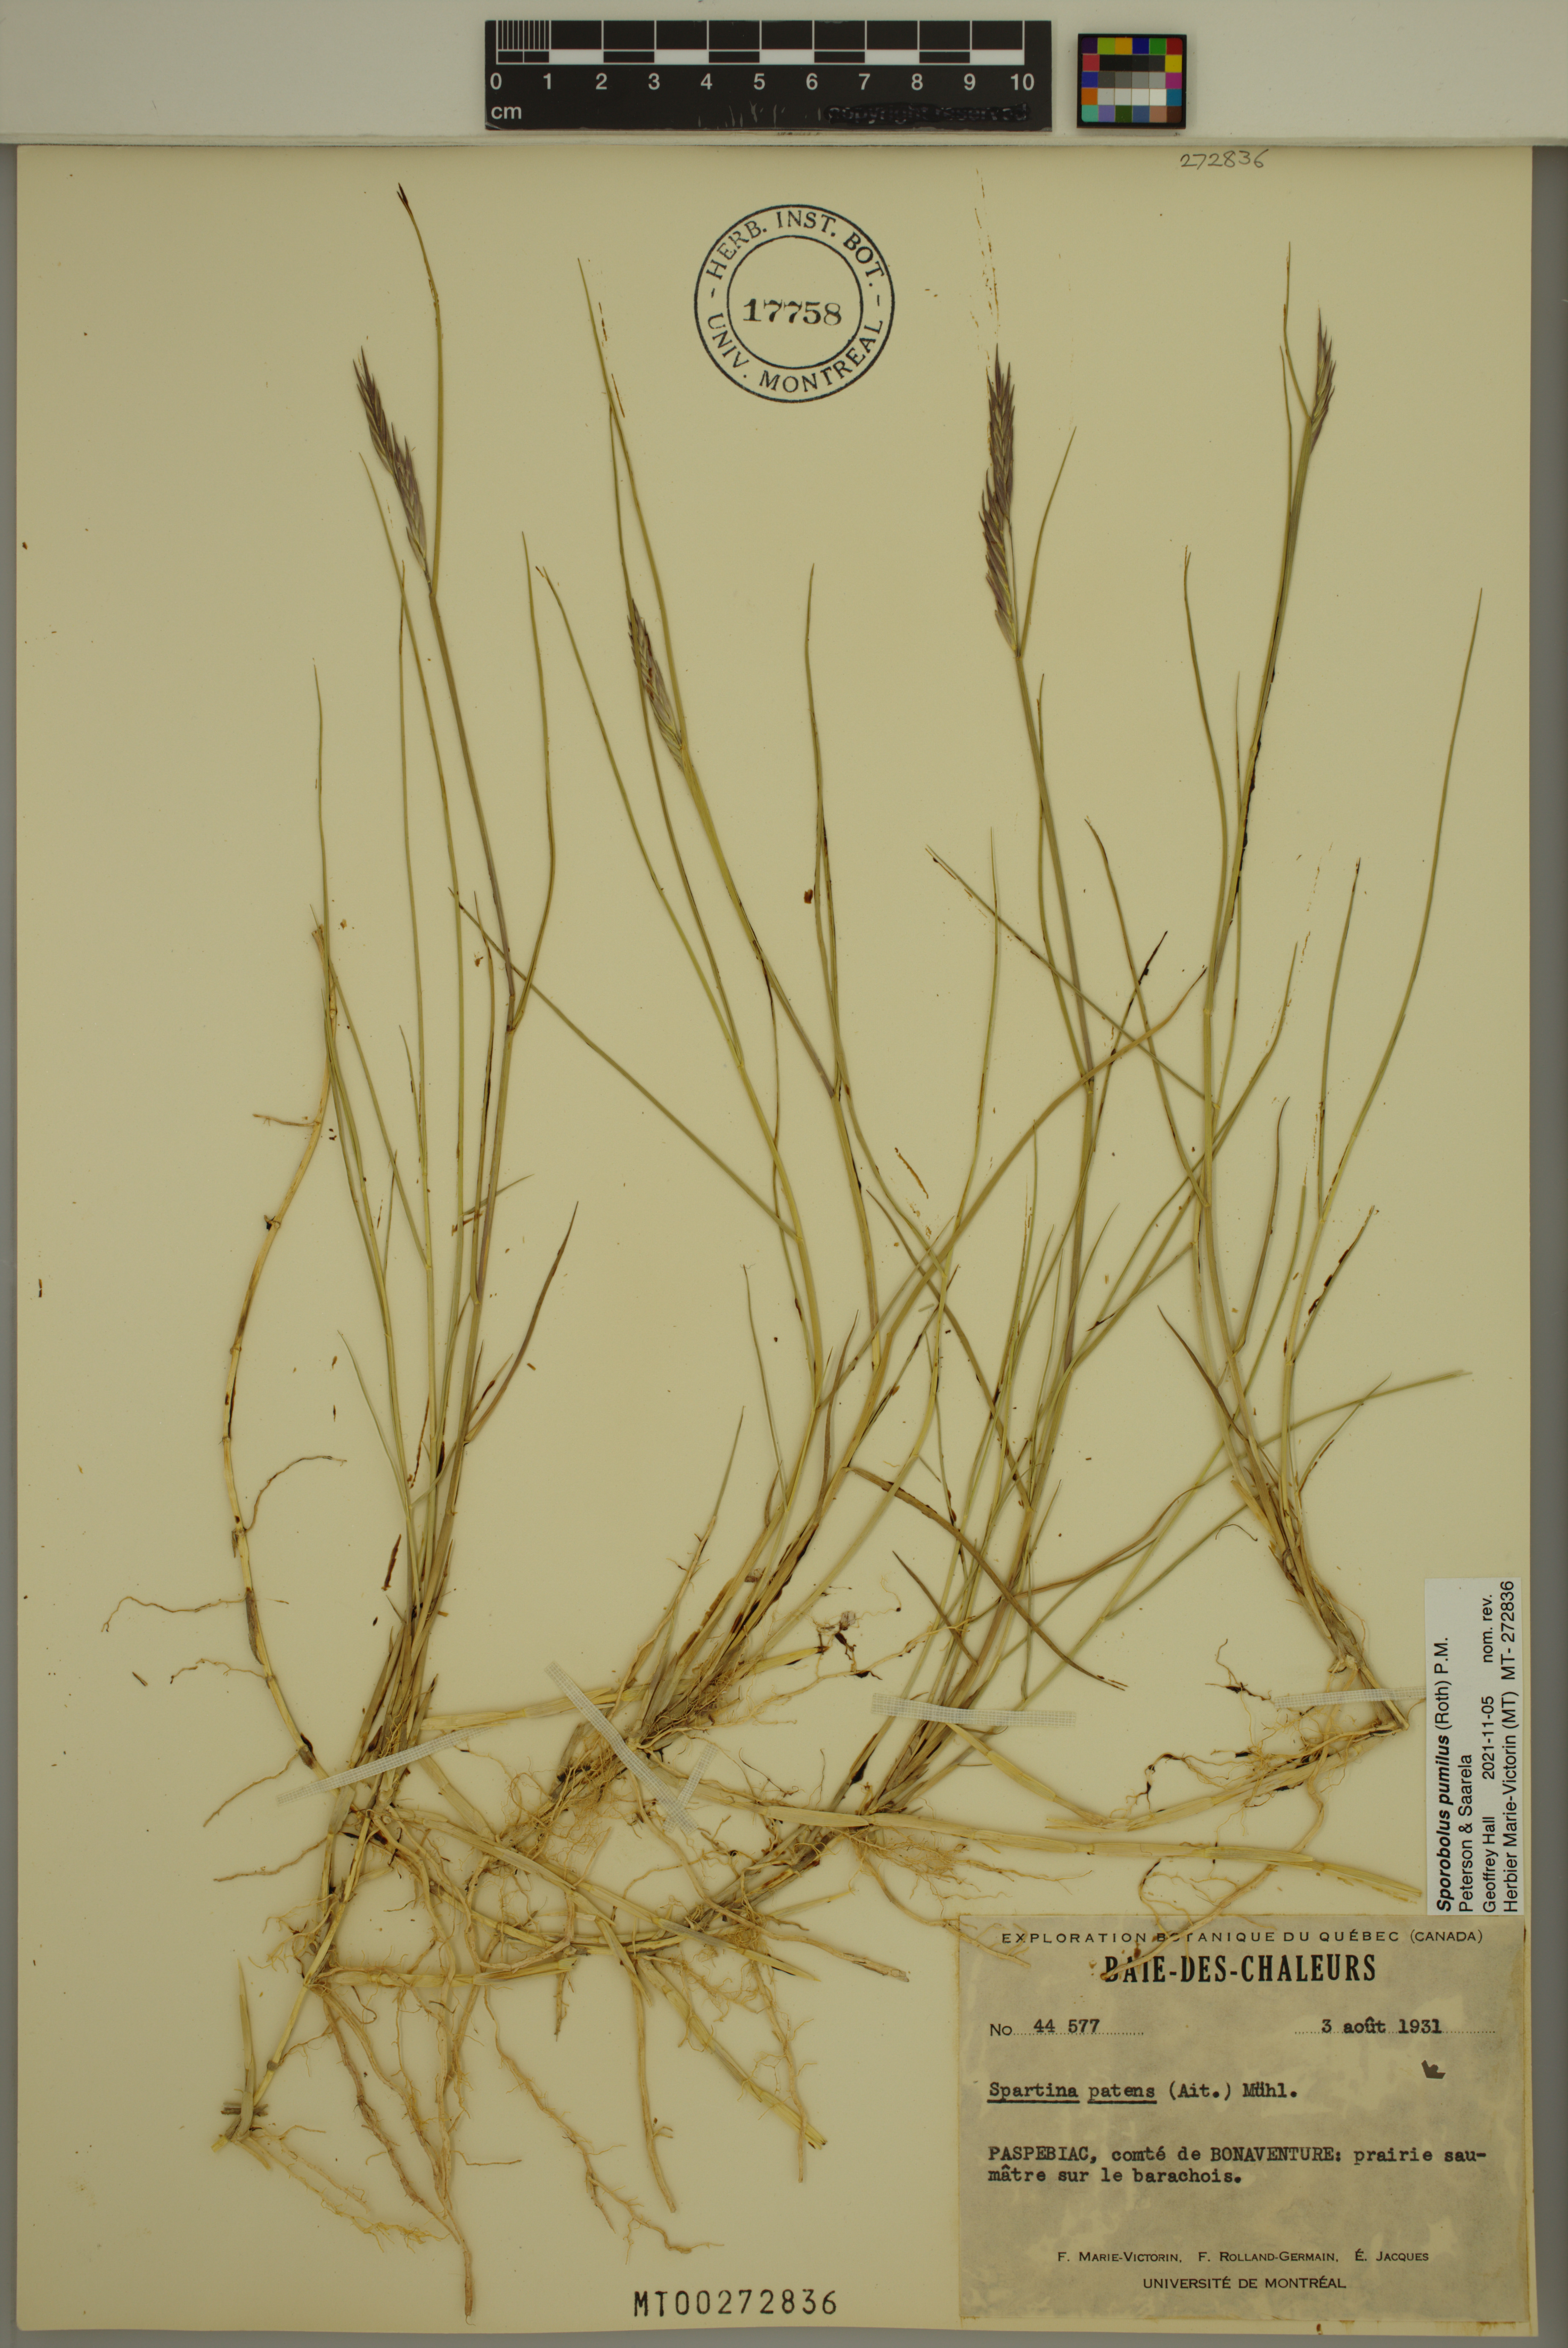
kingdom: Plantae
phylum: Tracheophyta
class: Liliopsida
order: Poales
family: Poaceae
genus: Sporobolus
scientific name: Sporobolus pumilus
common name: Highwater grass
